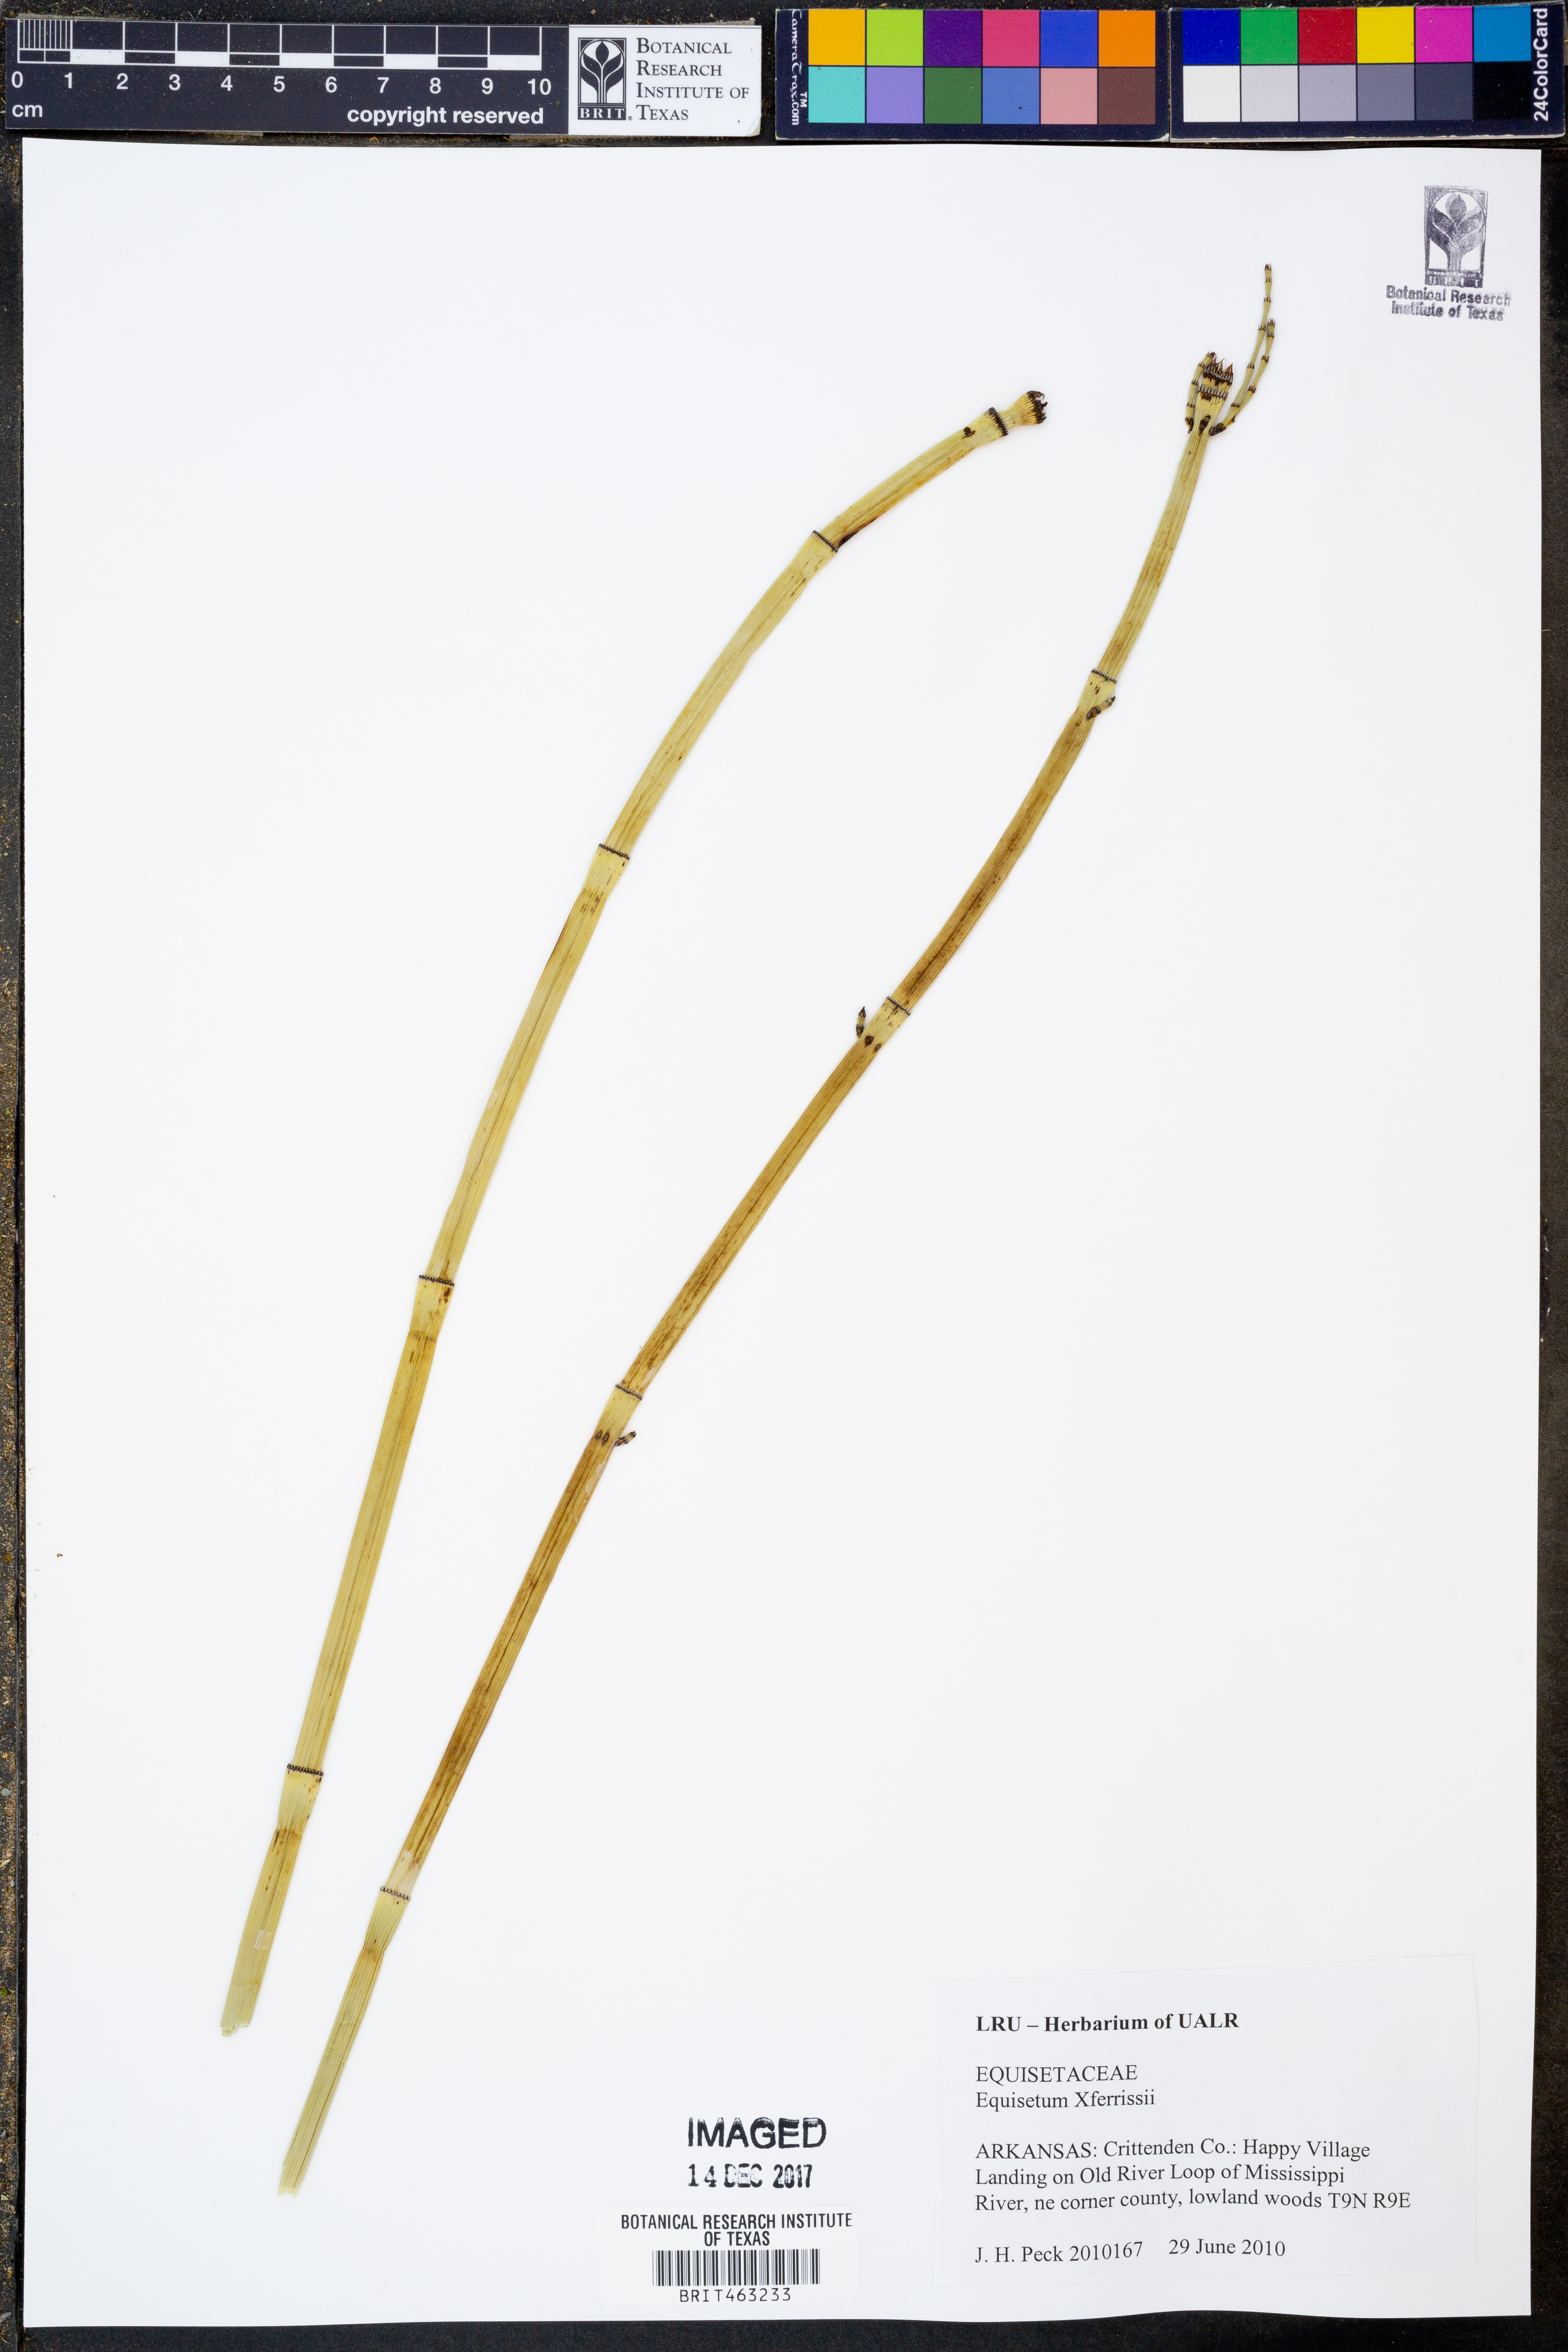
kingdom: Plantae
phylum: Tracheophyta
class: Polypodiopsida
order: Equisetales
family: Equisetaceae
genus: Equisetum
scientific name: Equisetum ferrissii
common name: Ferriss' horsetail
